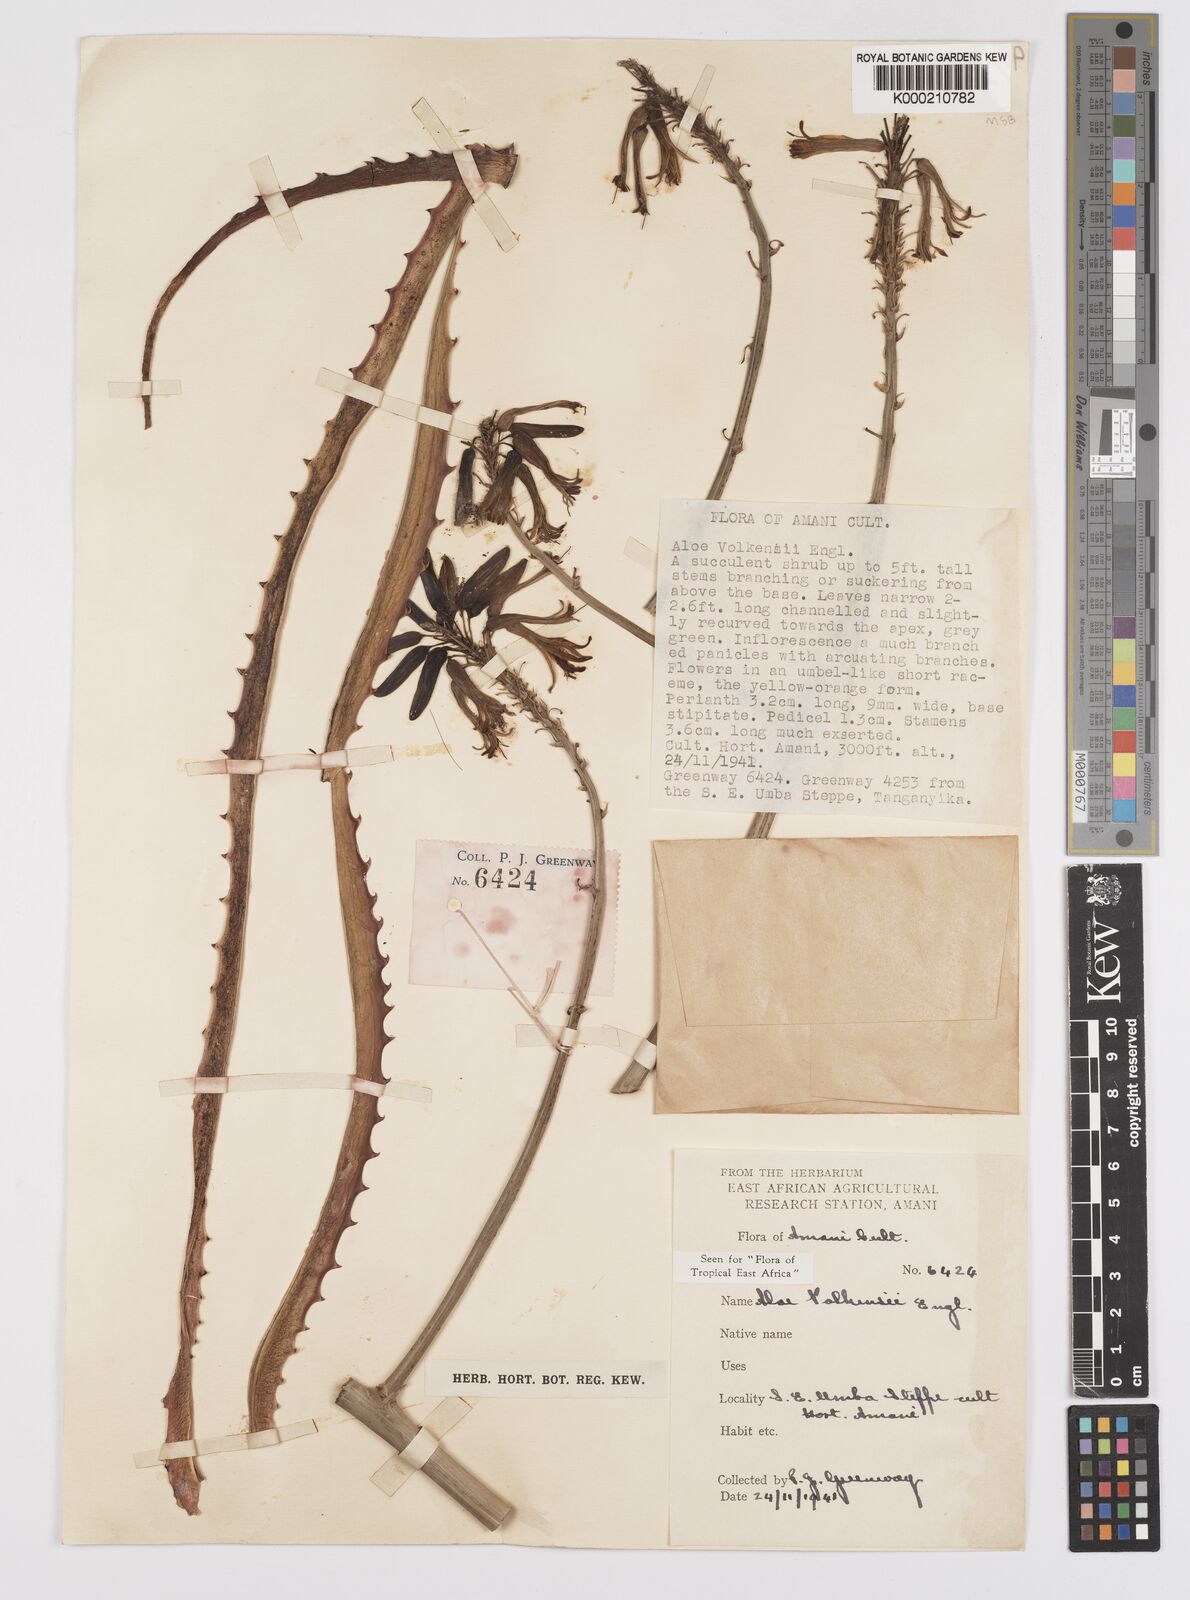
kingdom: Plantae
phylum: Tracheophyta
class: Liliopsida
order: Asparagales
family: Asphodelaceae
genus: Aloe
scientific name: Aloe volkensii
